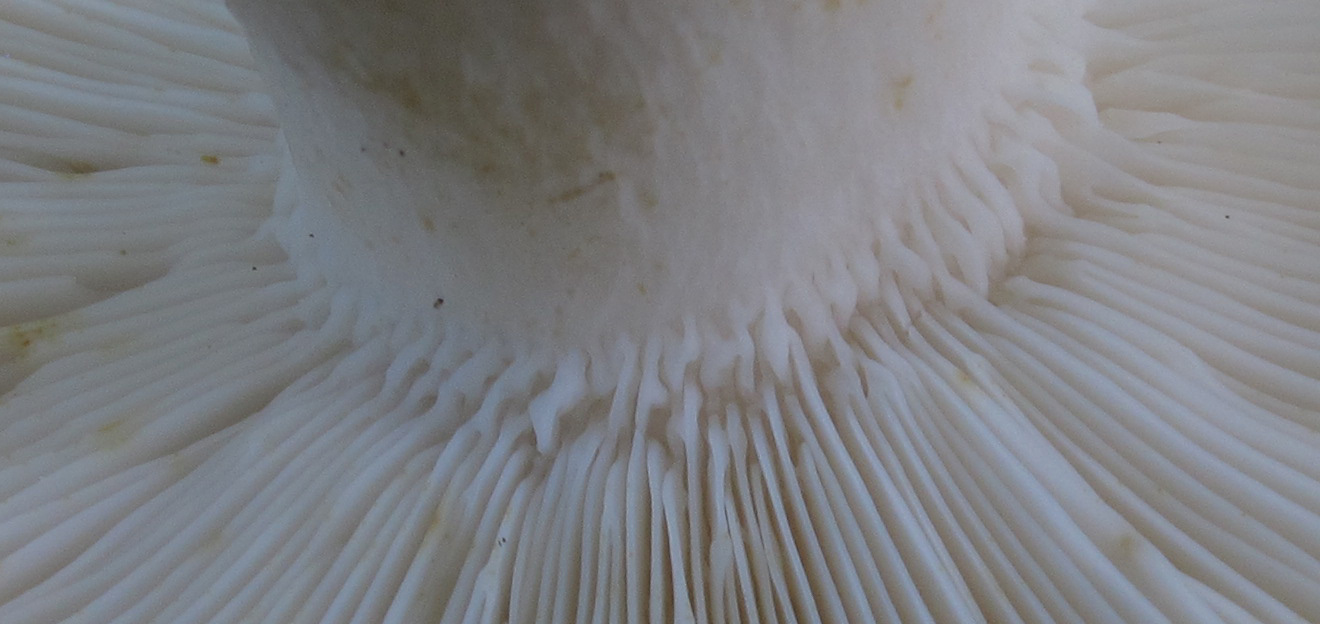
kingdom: Fungi
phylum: Basidiomycota
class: Agaricomycetes
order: Russulales
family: Russulaceae
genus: Russula
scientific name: Russula heterophylla
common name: gaffelbladet skørhat
